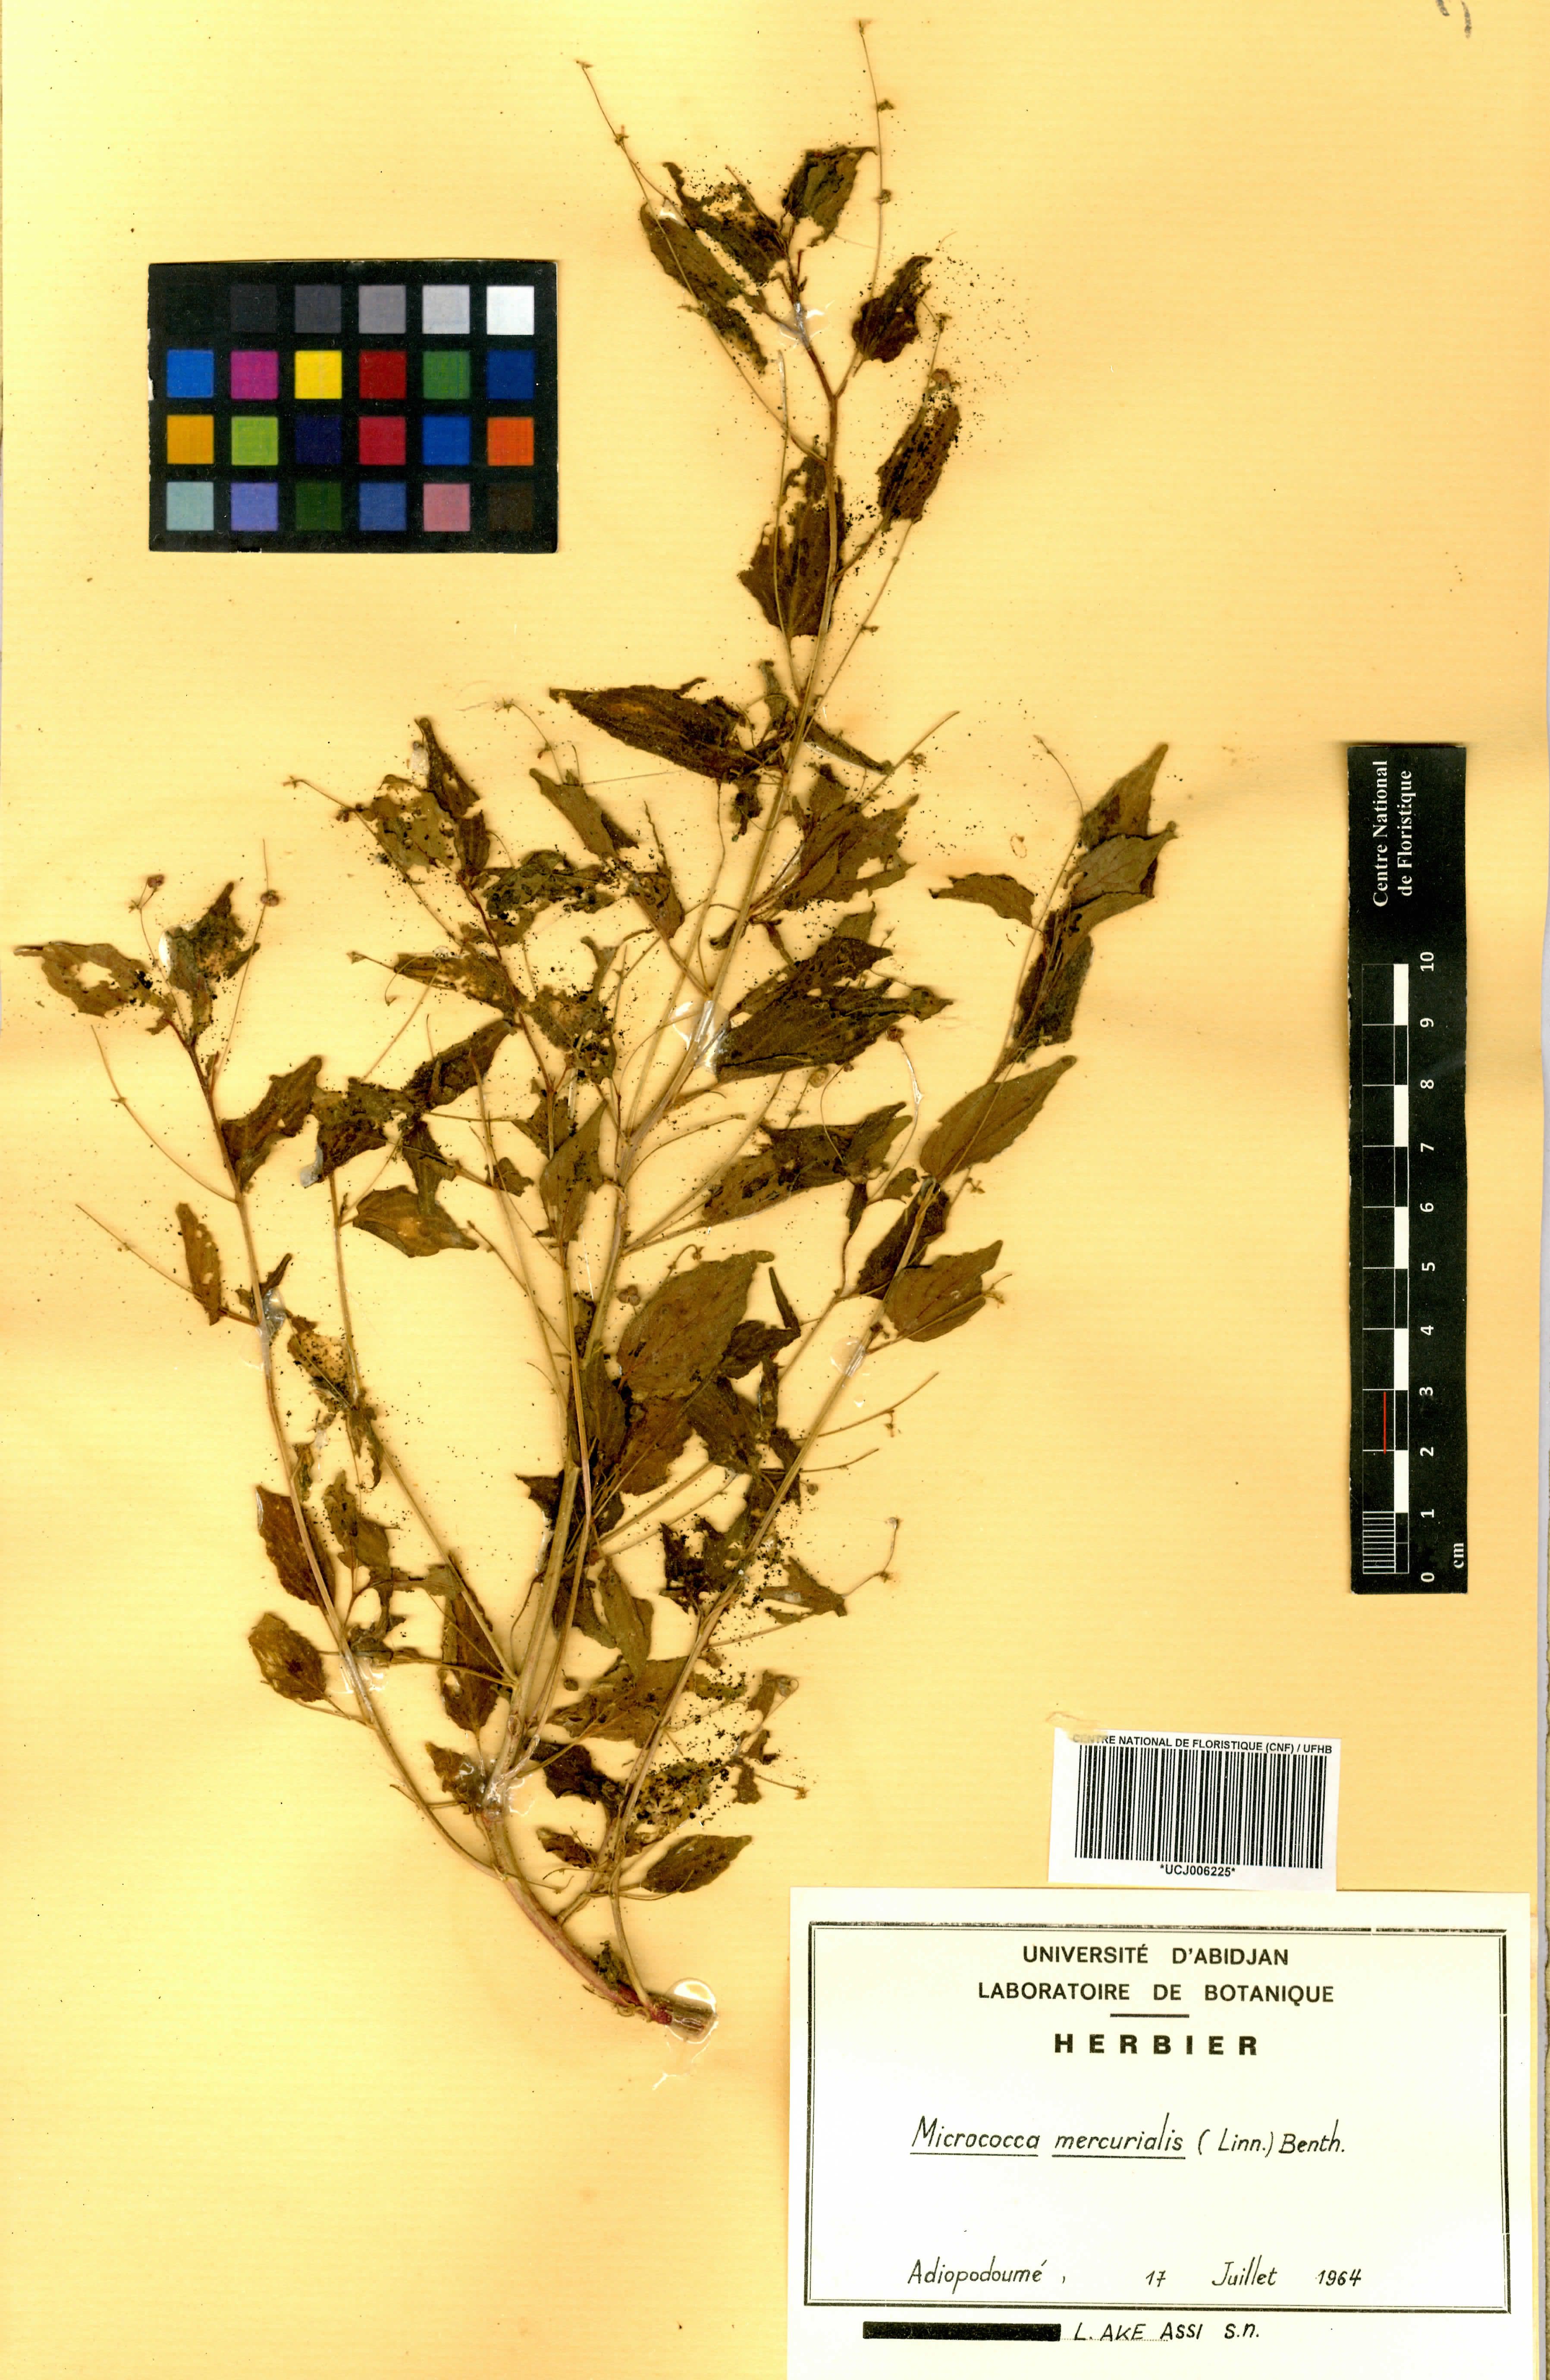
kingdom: Plantae
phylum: Tracheophyta
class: Magnoliopsida
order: Malpighiales
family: Euphorbiaceae
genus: Micrococca
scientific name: Micrococca mercurialis
